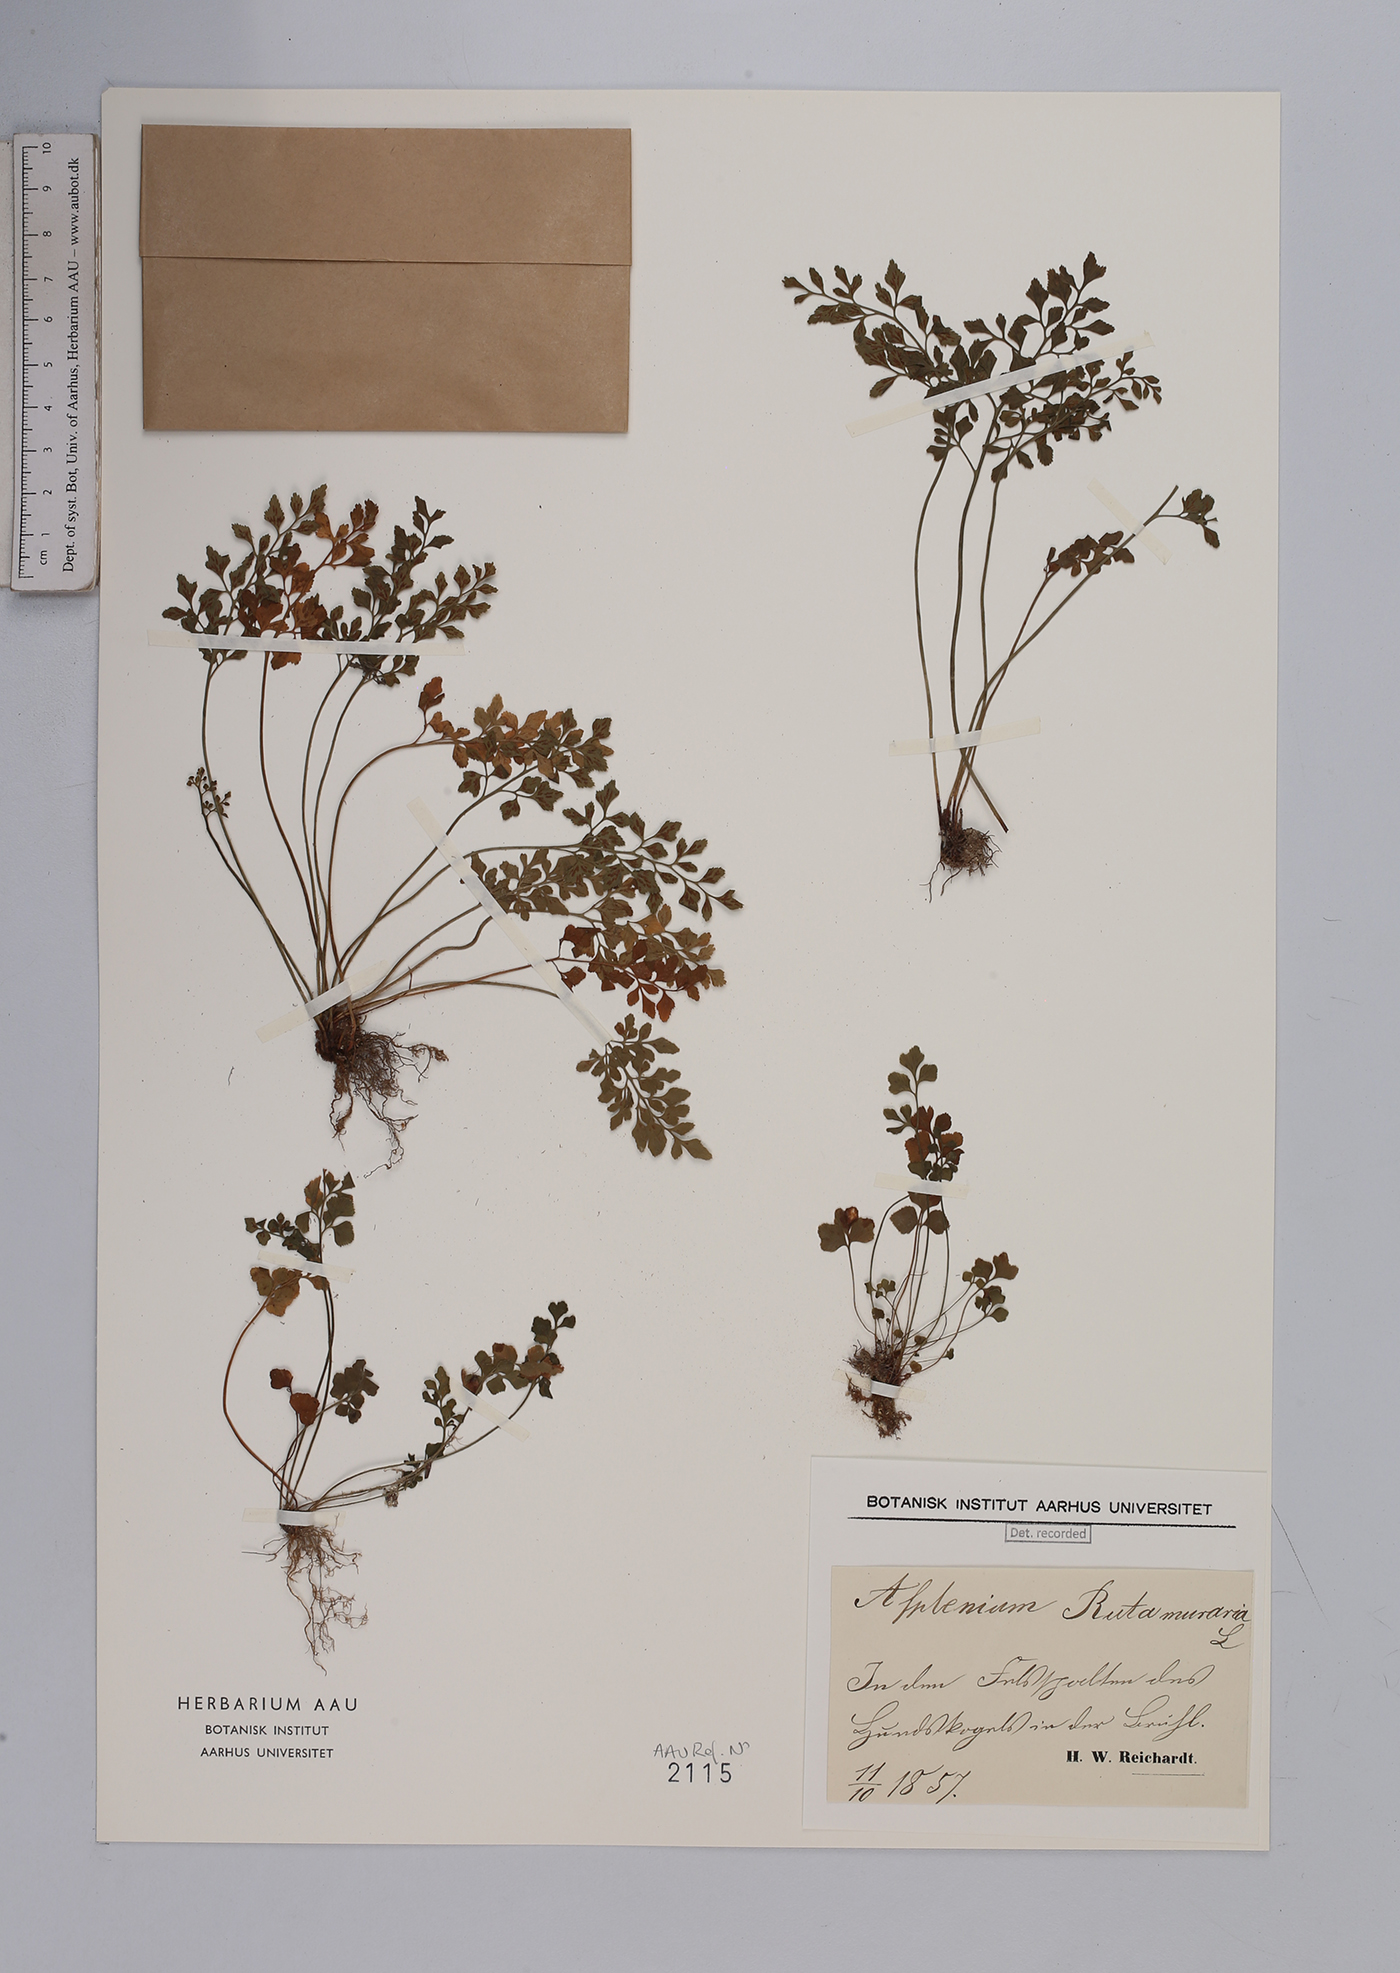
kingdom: Plantae
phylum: Tracheophyta
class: Polypodiopsida
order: Polypodiales
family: Aspleniaceae
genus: Asplenium
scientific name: Asplenium ruta-muraria
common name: Wall-rue
